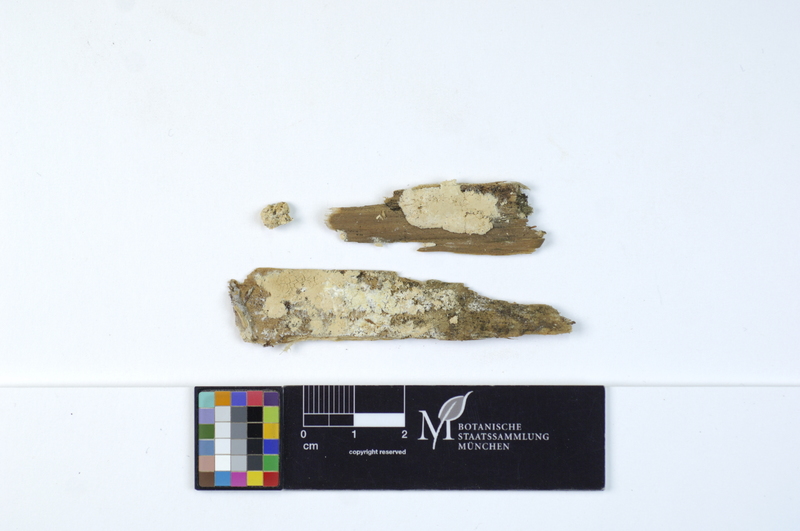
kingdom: Plantae
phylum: Tracheophyta
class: Pinopsida
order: Pinales
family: Pinaceae
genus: Picea
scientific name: Picea
